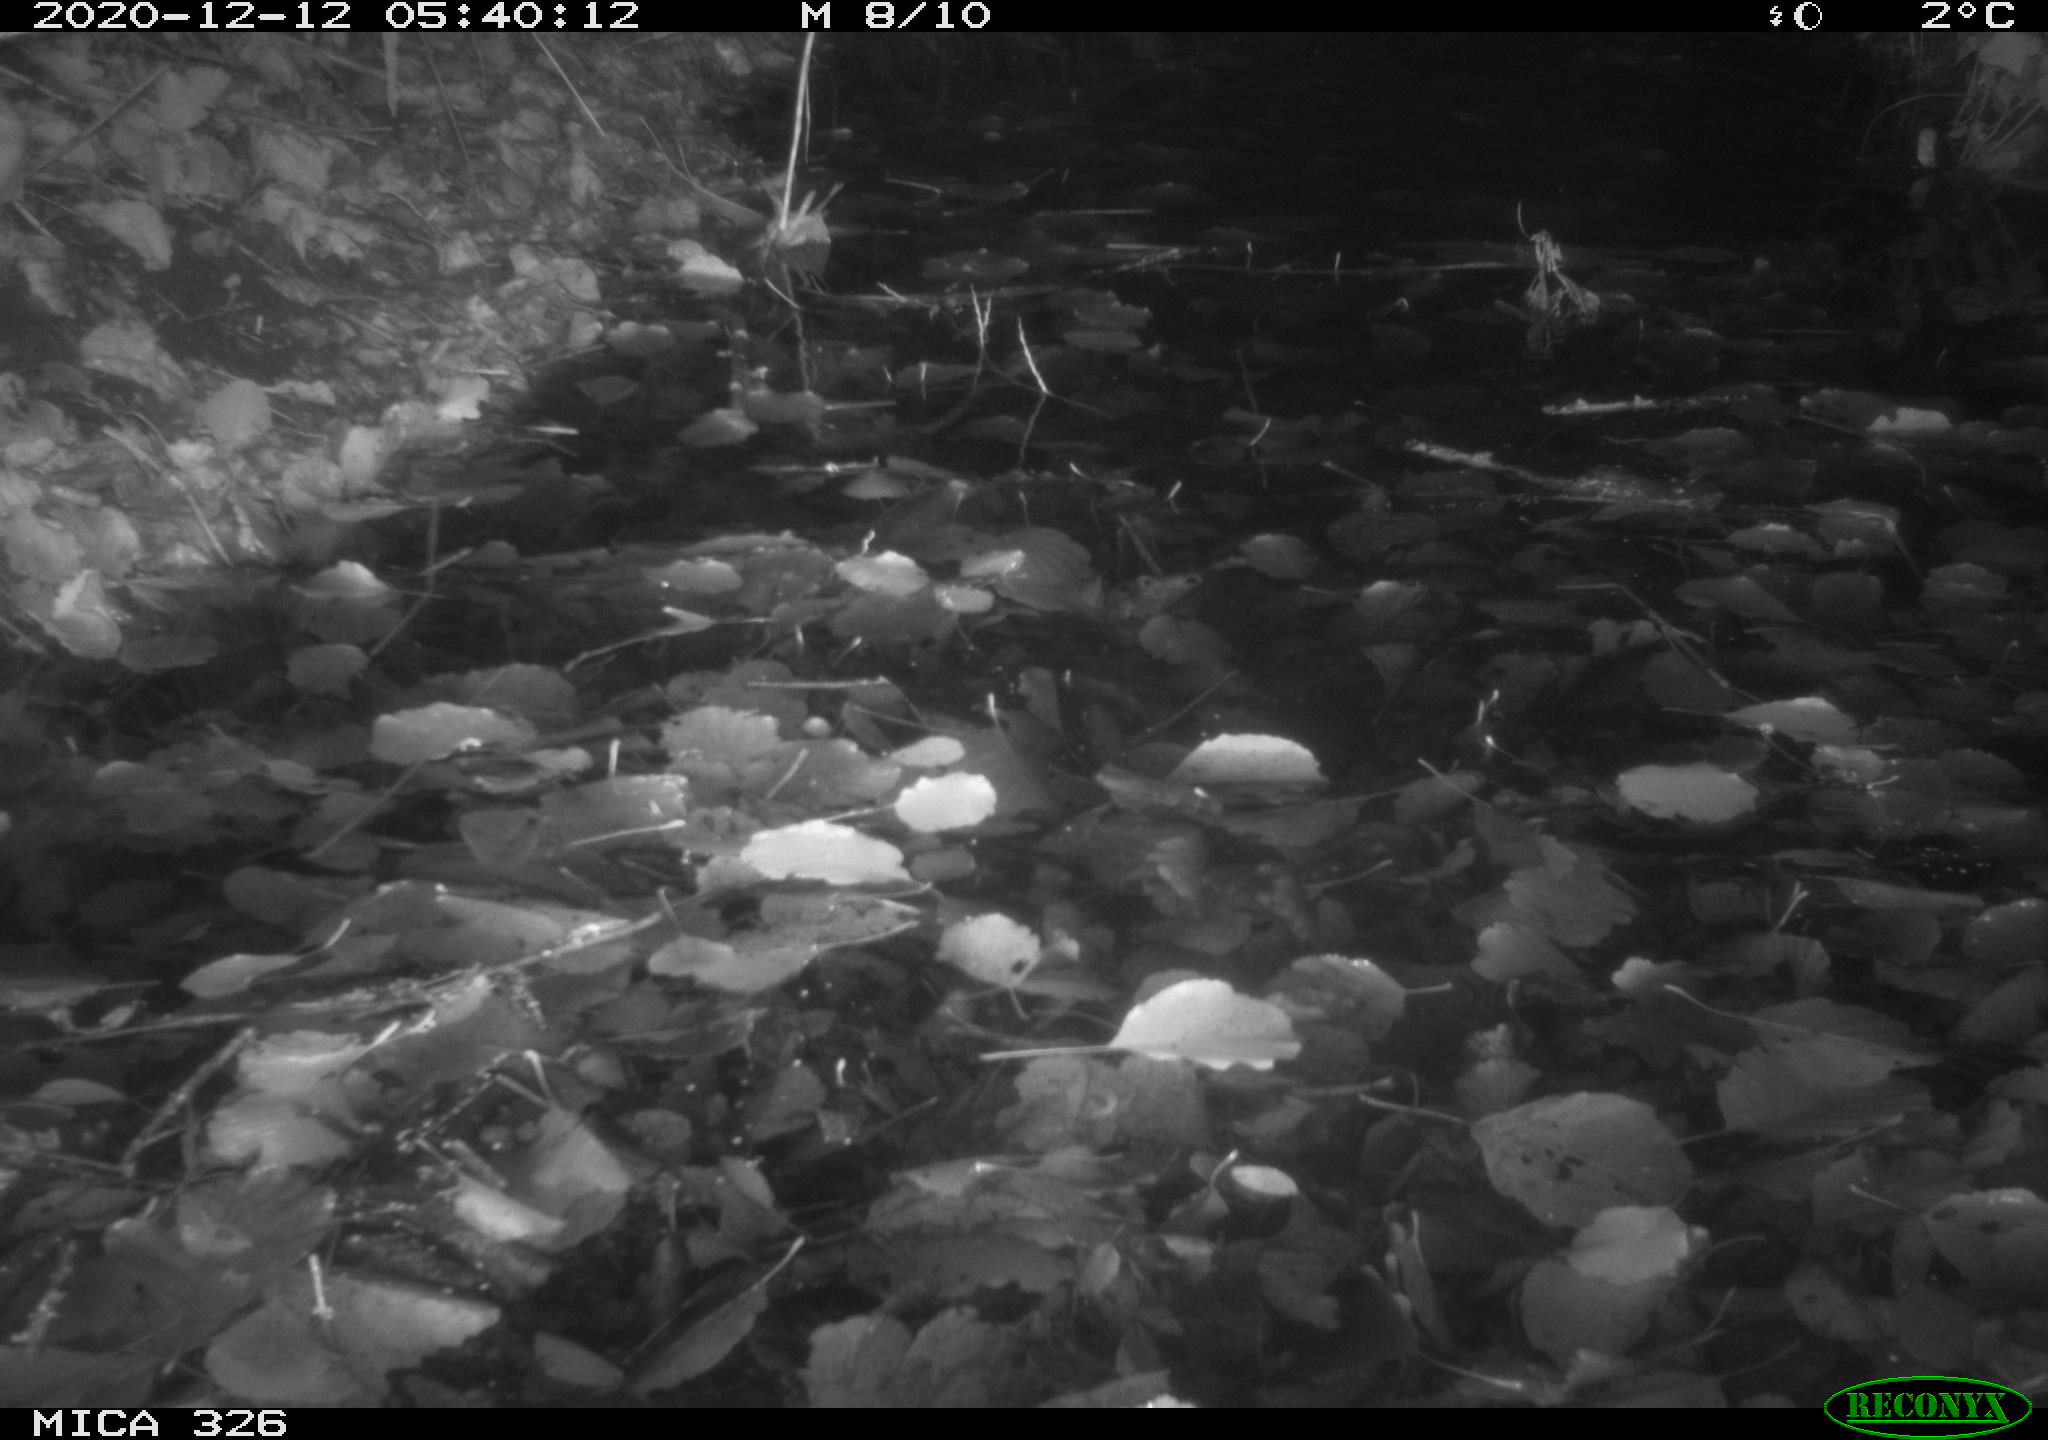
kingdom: Animalia
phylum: Chordata
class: Mammalia
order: Rodentia
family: Cricetidae
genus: Ondatra
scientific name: Ondatra zibethicus
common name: Muskrat
